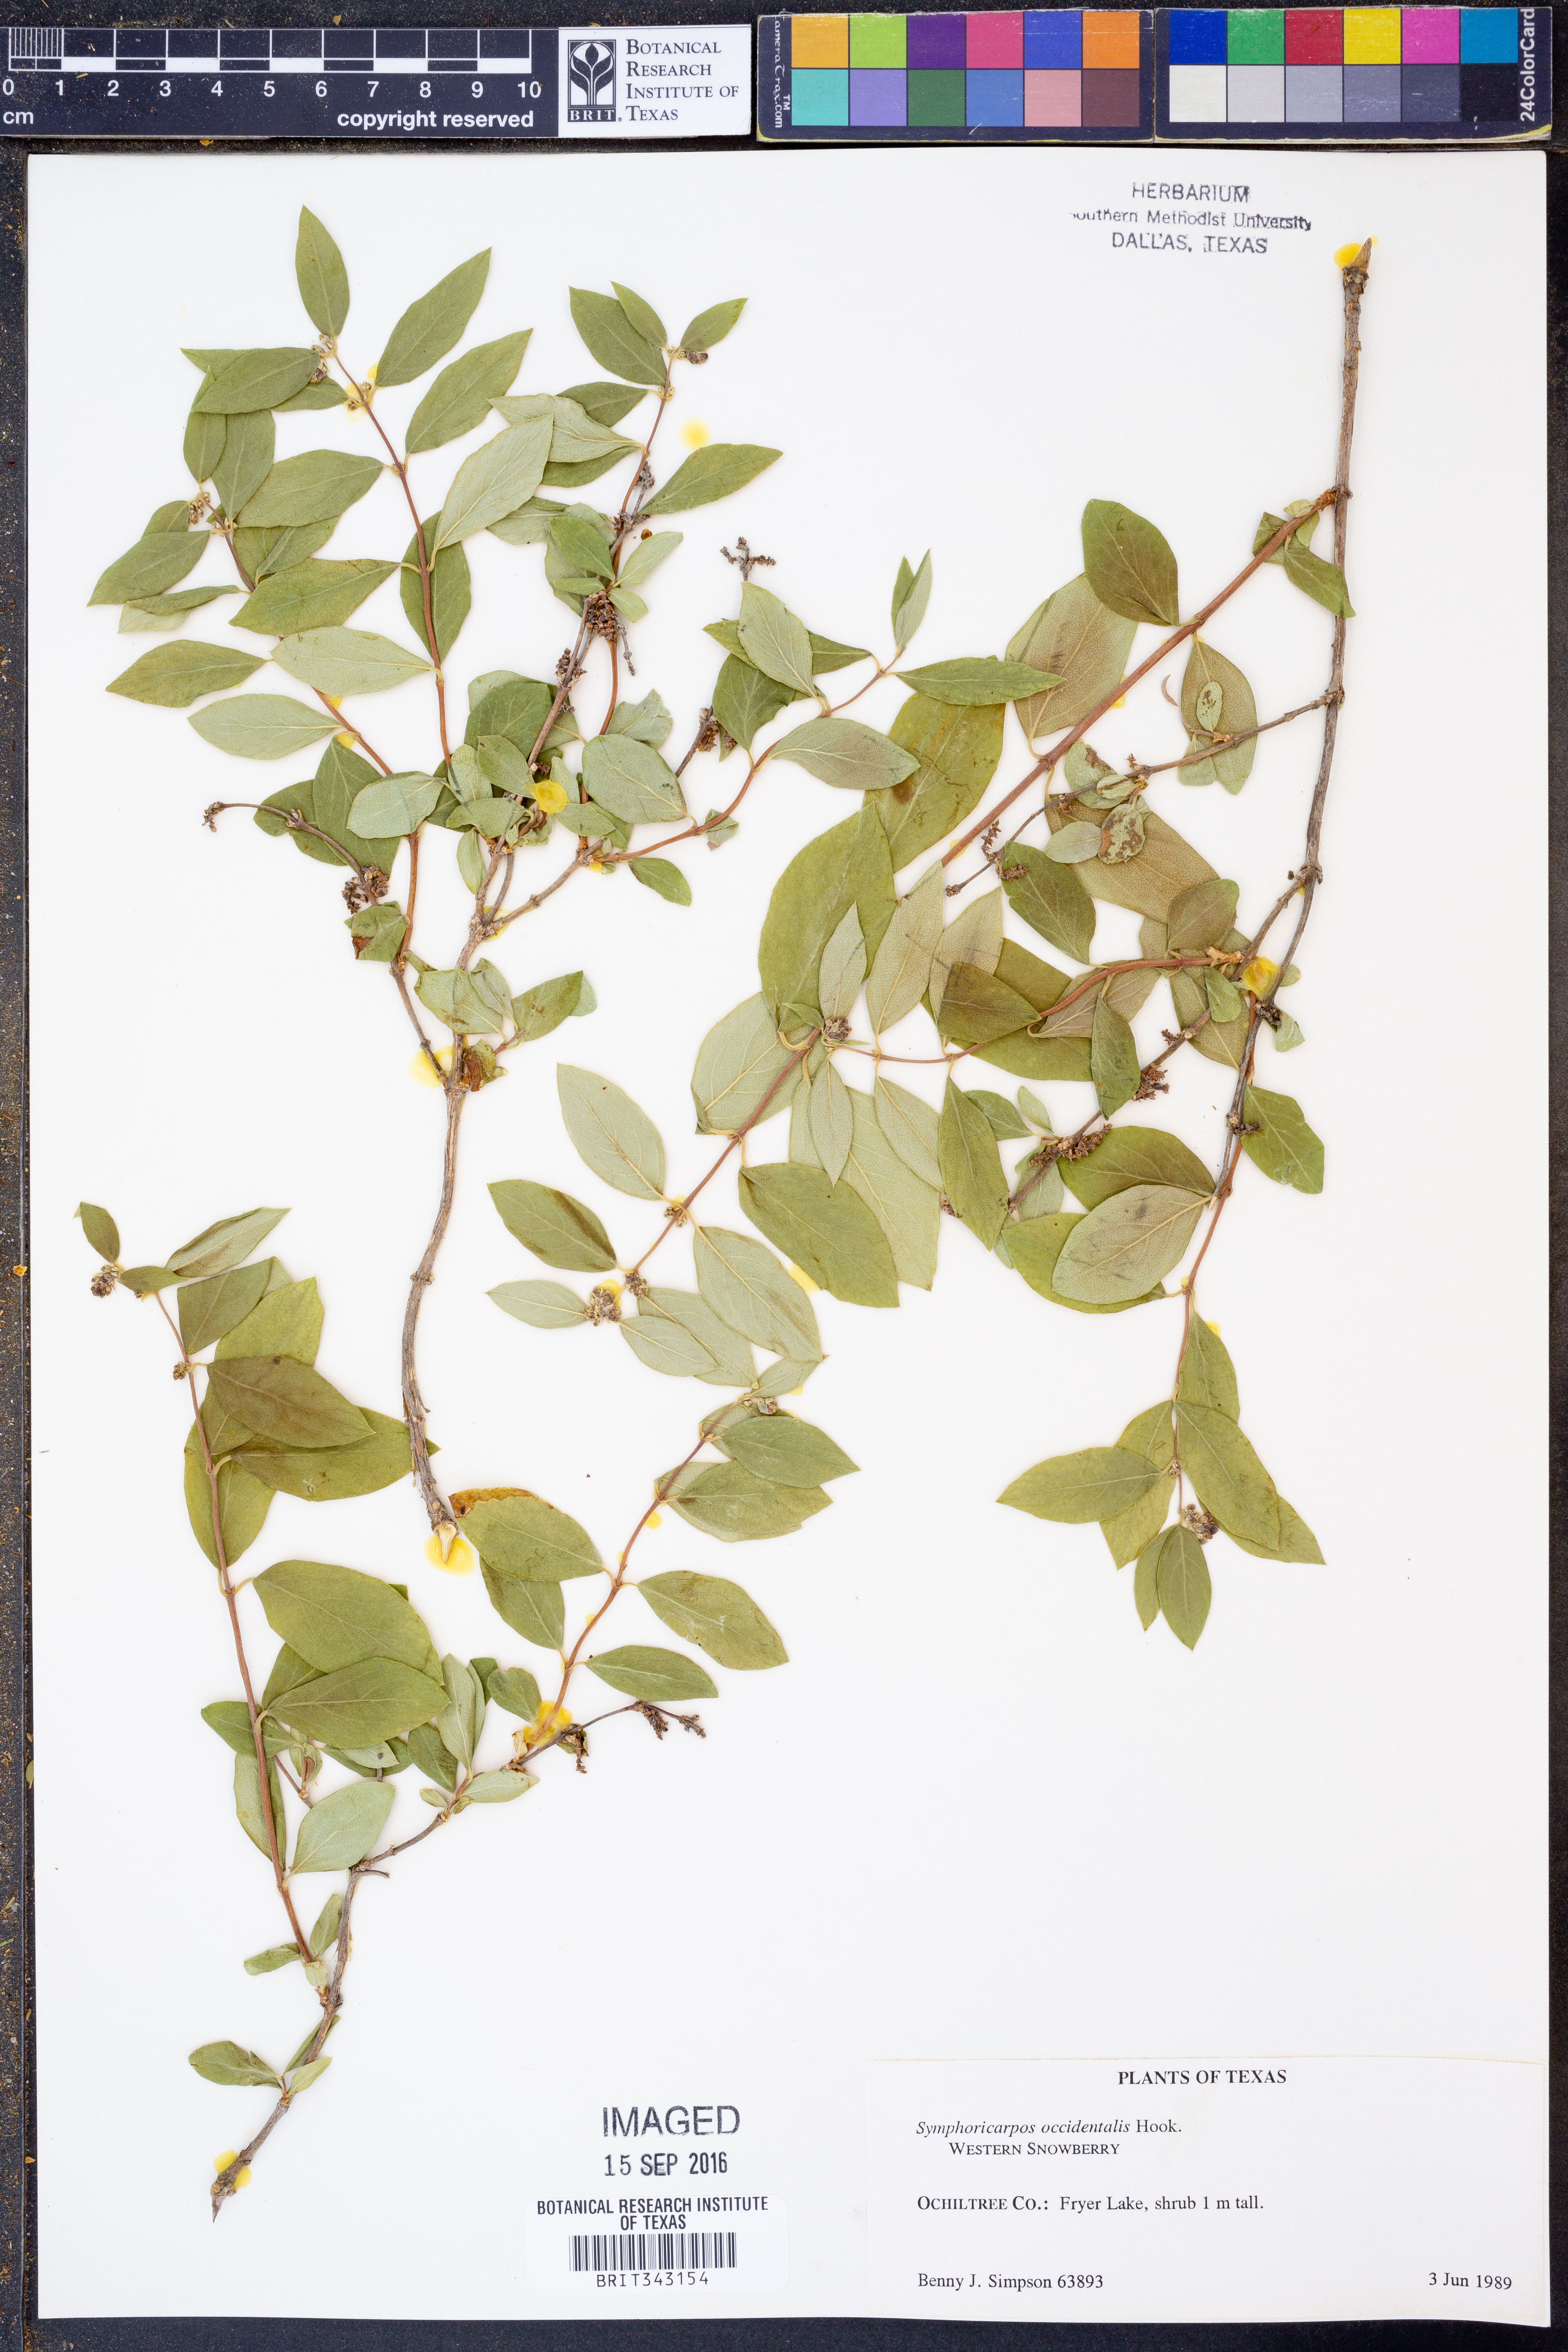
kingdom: Plantae
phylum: Tracheophyta
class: Magnoliopsida
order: Dipsacales
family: Caprifoliaceae
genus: Symphoricarpos
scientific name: Symphoricarpos occidentalis
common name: Wolfberry
